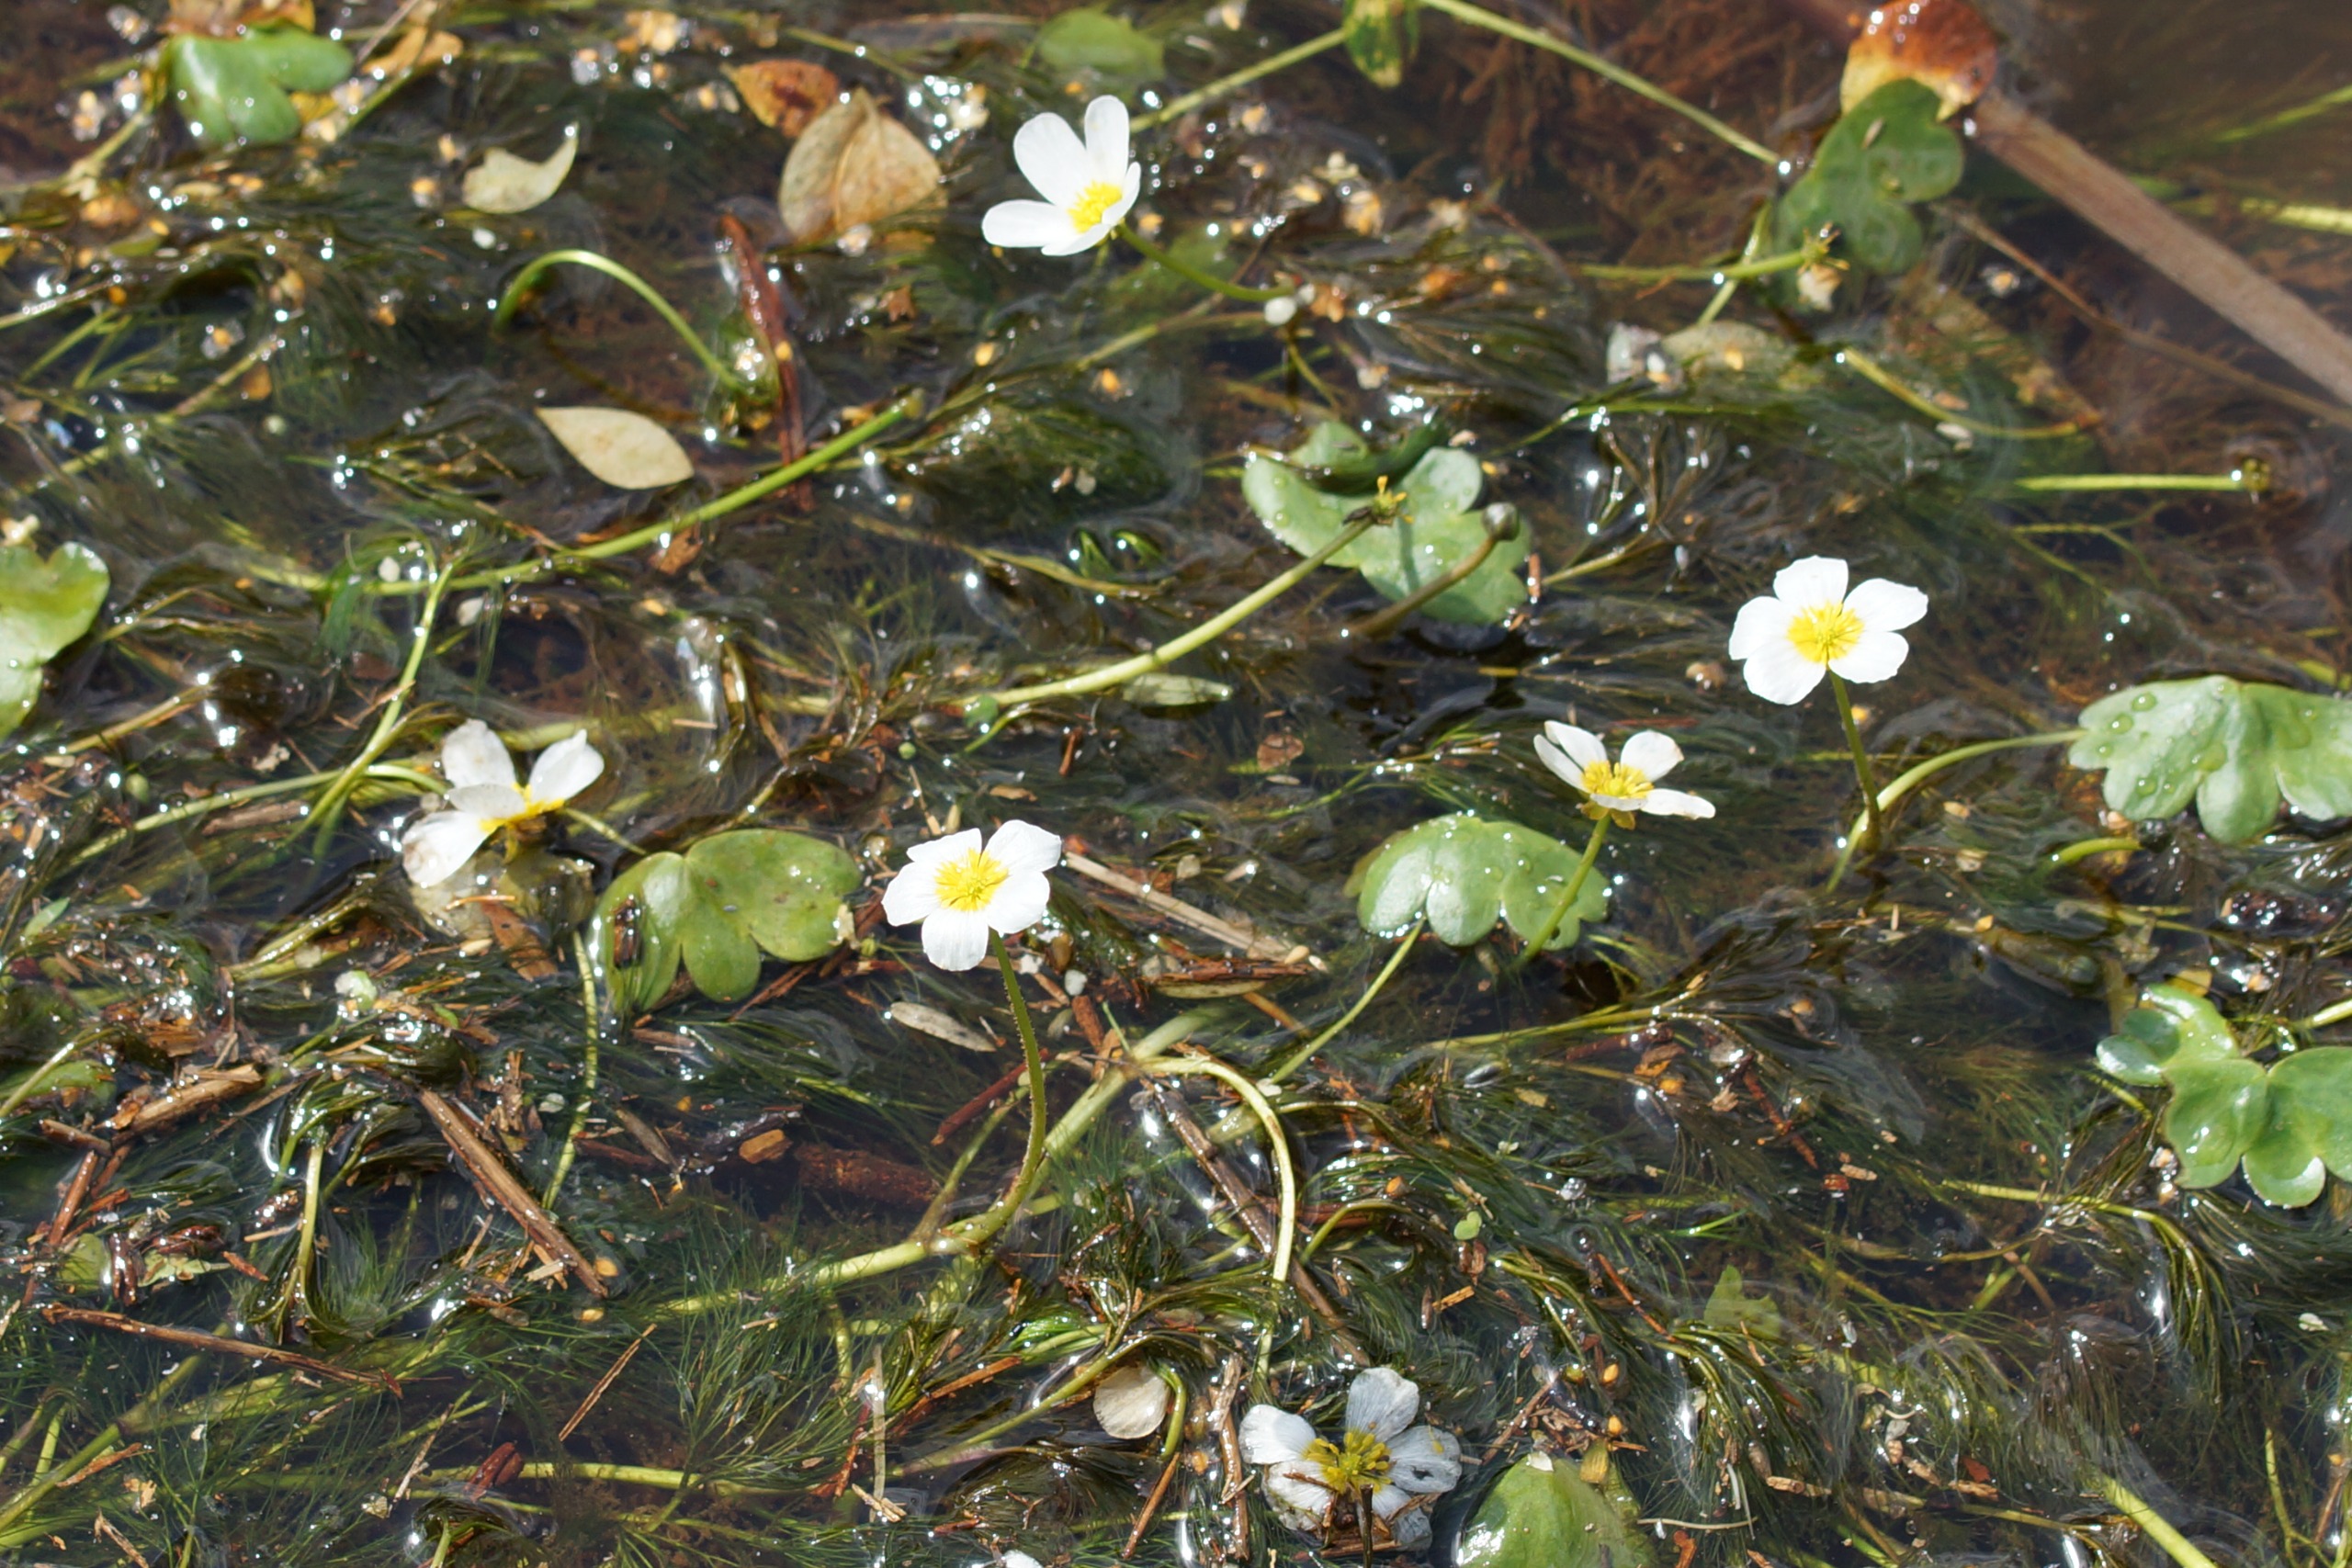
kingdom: Plantae
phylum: Tracheophyta
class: Magnoliopsida
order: Ranunculales
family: Ranunculaceae
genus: Ranunculus
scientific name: Ranunculus peltatus
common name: Storblomstret vandranunkel
